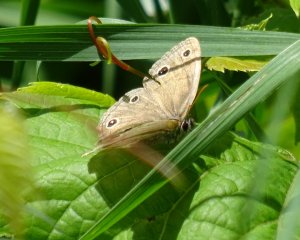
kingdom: Animalia
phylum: Arthropoda
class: Insecta
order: Lepidoptera
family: Nymphalidae
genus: Euptychia
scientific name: Euptychia cymela
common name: Little Wood Satyr
